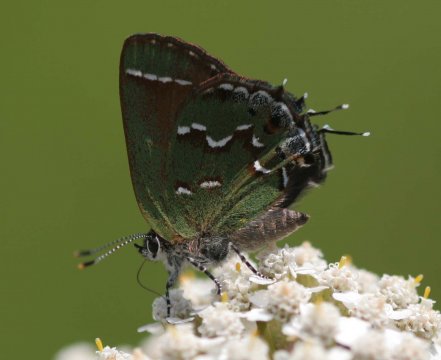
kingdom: Animalia
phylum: Arthropoda
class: Insecta
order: Lepidoptera
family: Lycaenidae
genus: Mitoura
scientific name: Mitoura gryneus
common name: Juniper Hairstreak
